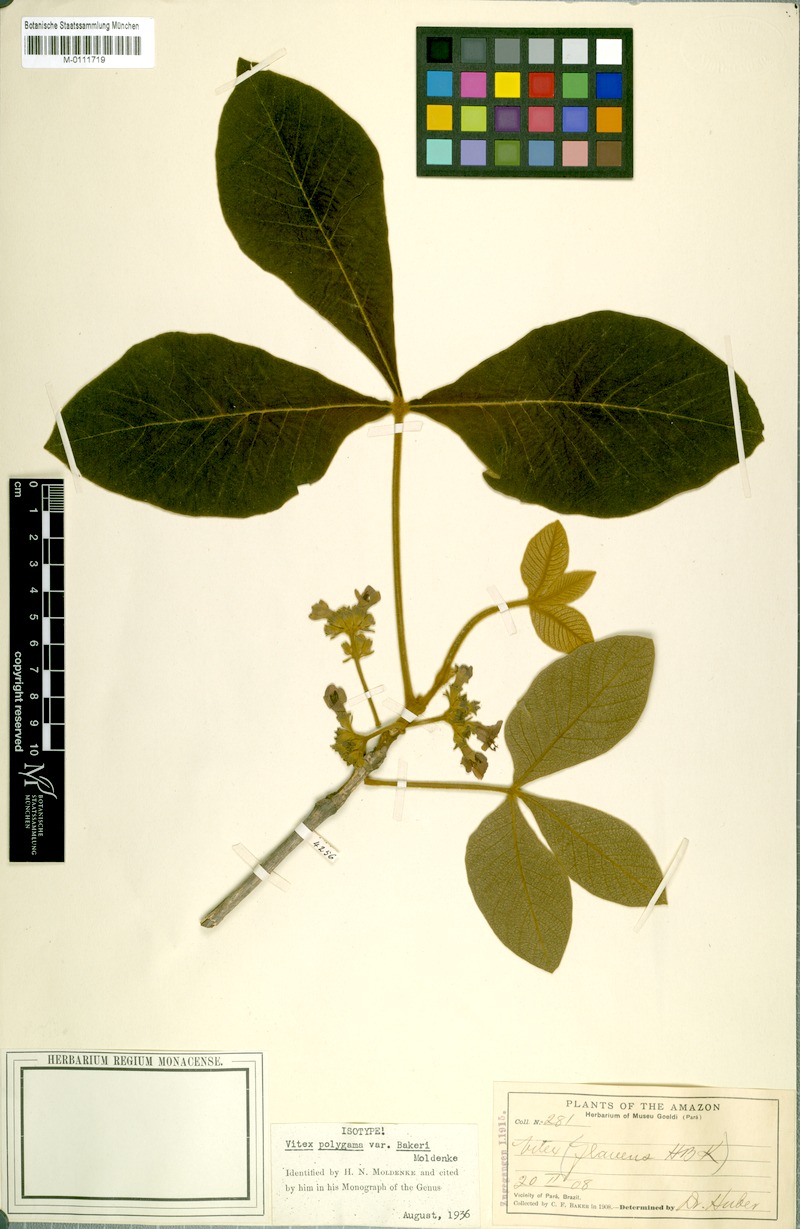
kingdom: Plantae
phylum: Tracheophyta
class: Magnoliopsida
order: Lamiales
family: Lamiaceae
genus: Vitex
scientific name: Vitex panshiniana
